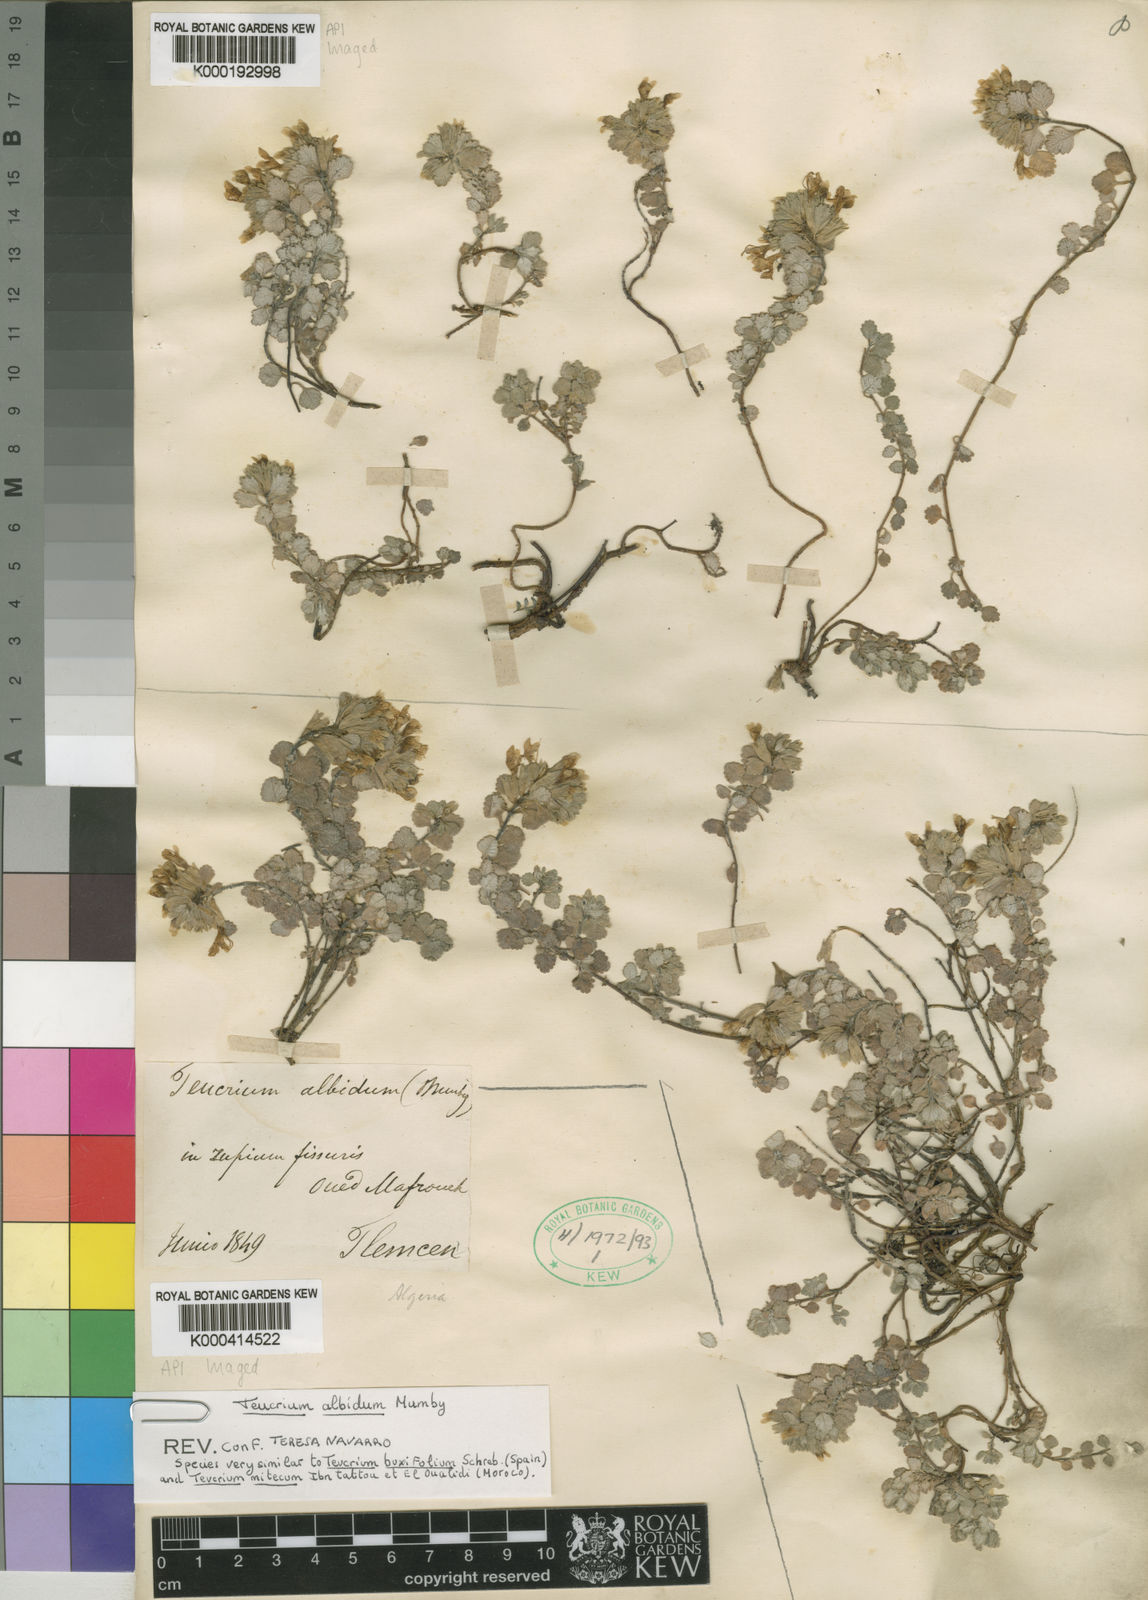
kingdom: Plantae
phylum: Tracheophyta
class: Magnoliopsida
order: Lamiales
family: Lamiaceae
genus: Teucrium
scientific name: Teucrium albidum
